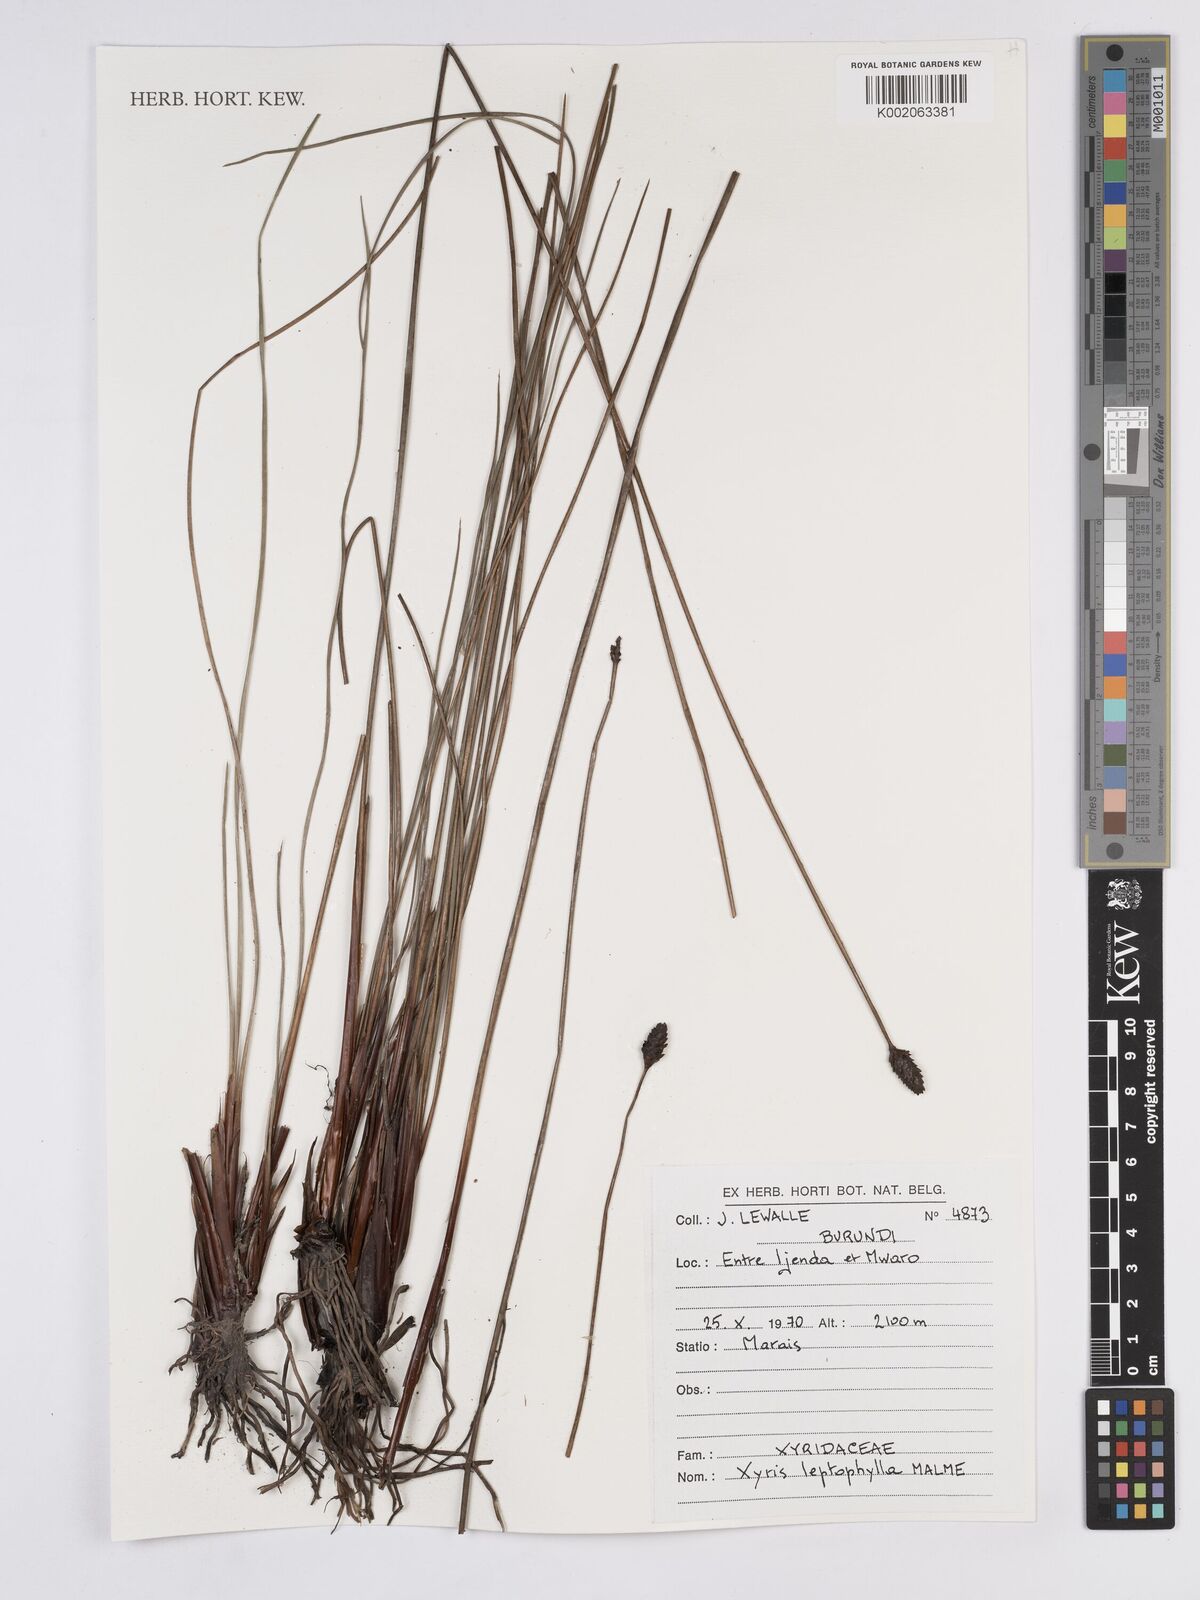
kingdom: Plantae
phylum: Tracheophyta
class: Liliopsida
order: Poales
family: Xyridaceae
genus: Xyris
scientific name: Xyris congensis
